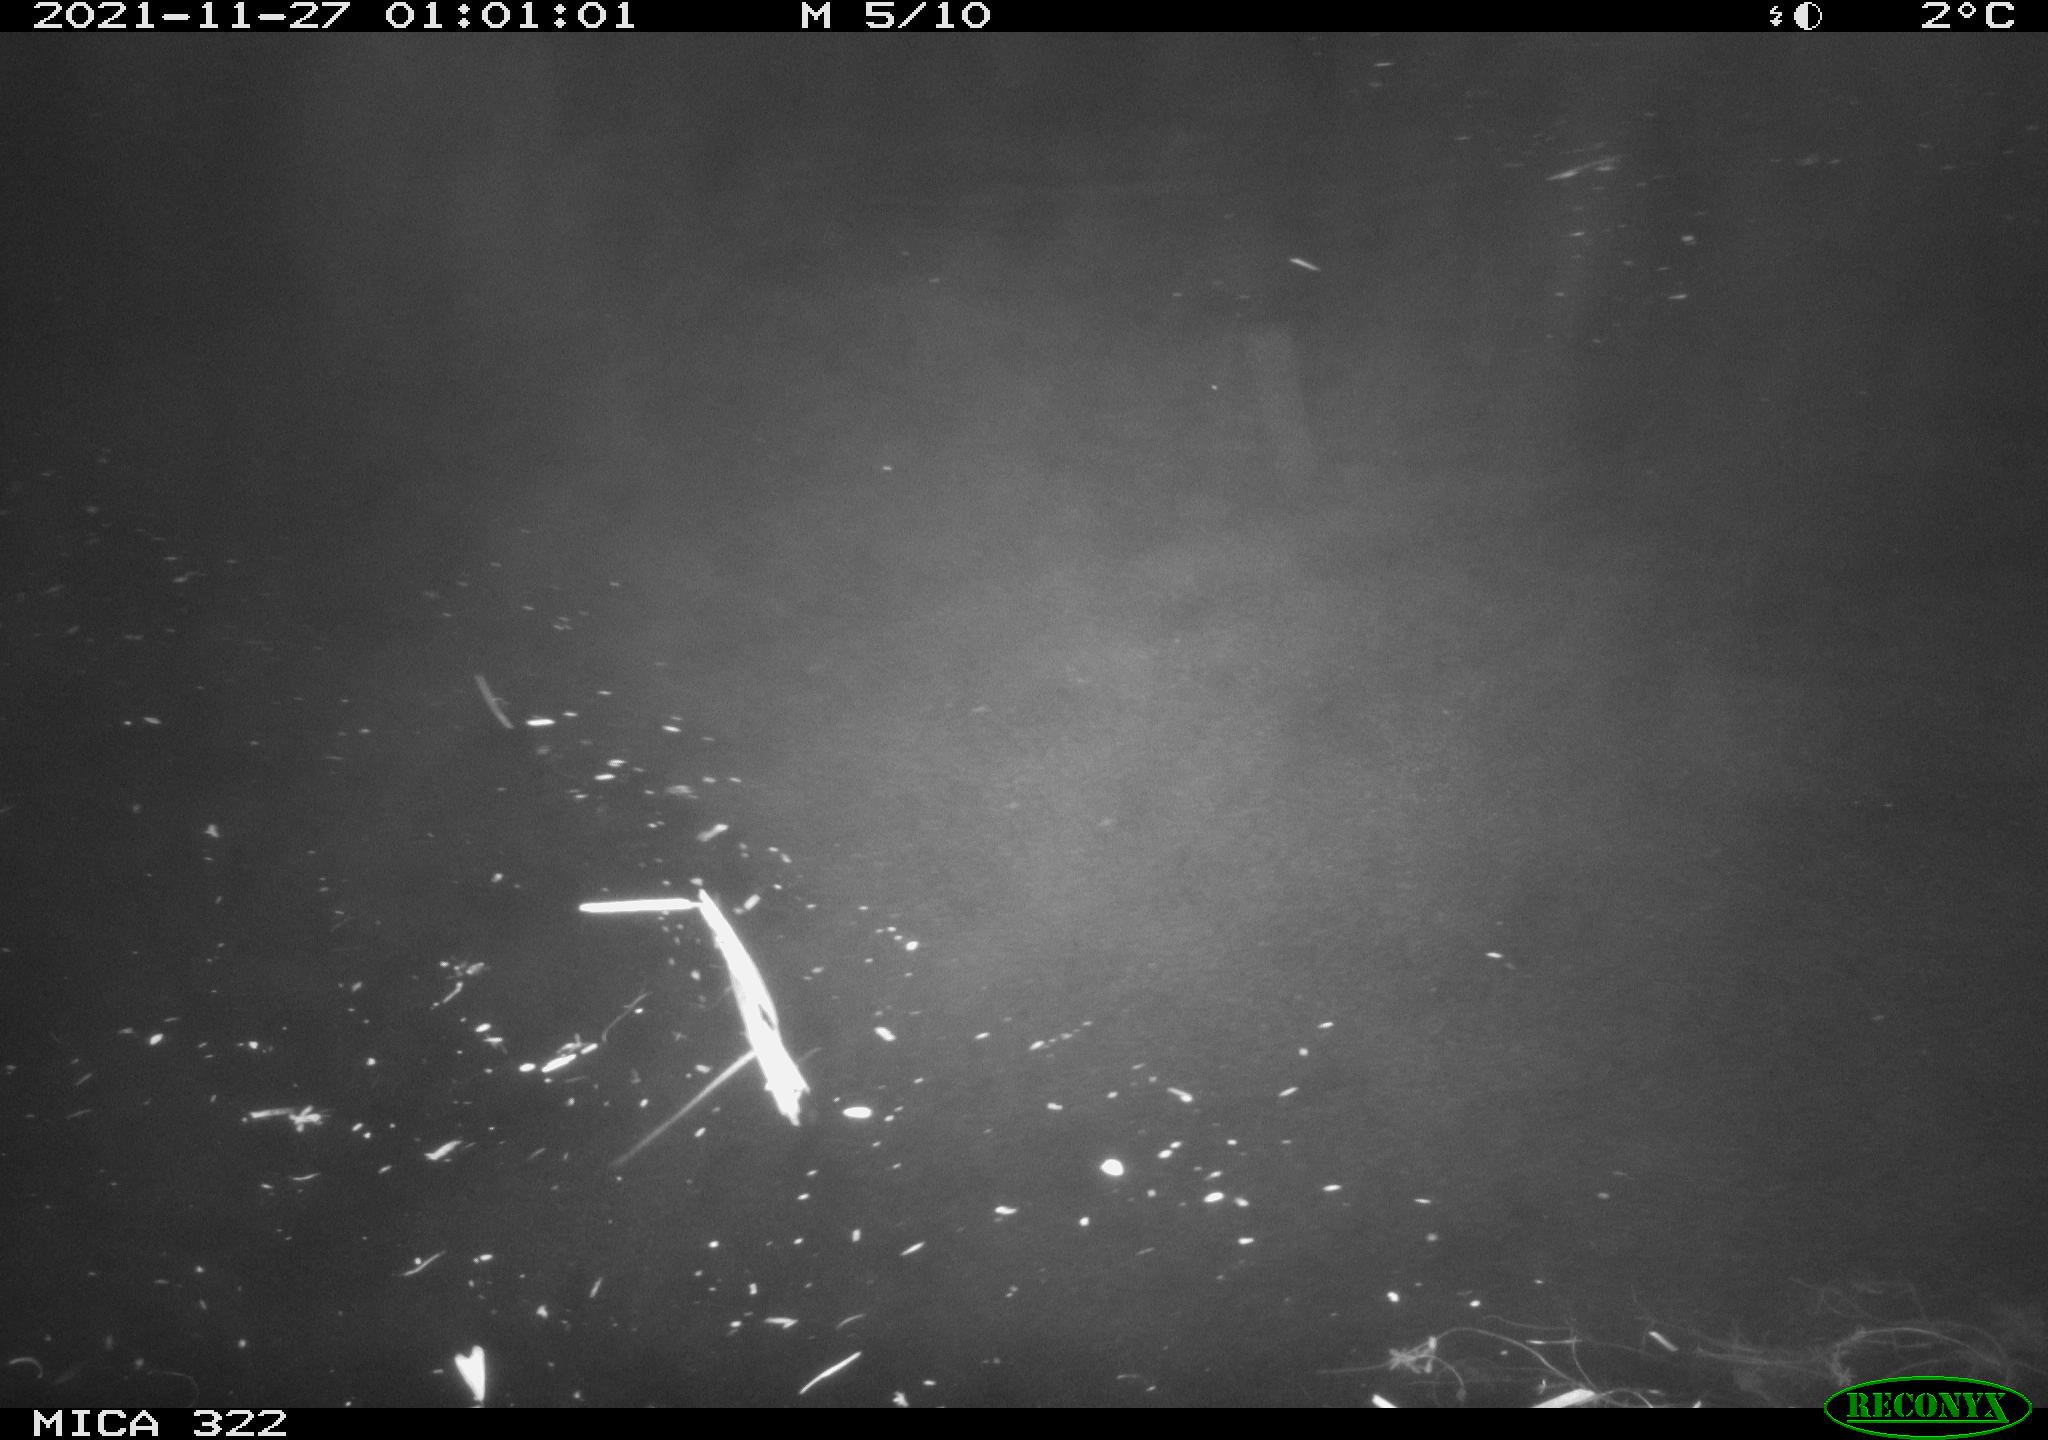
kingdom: Animalia
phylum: Chordata
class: Mammalia
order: Rodentia
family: Muridae
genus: Rattus
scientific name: Rattus norvegicus
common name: Brown rat
